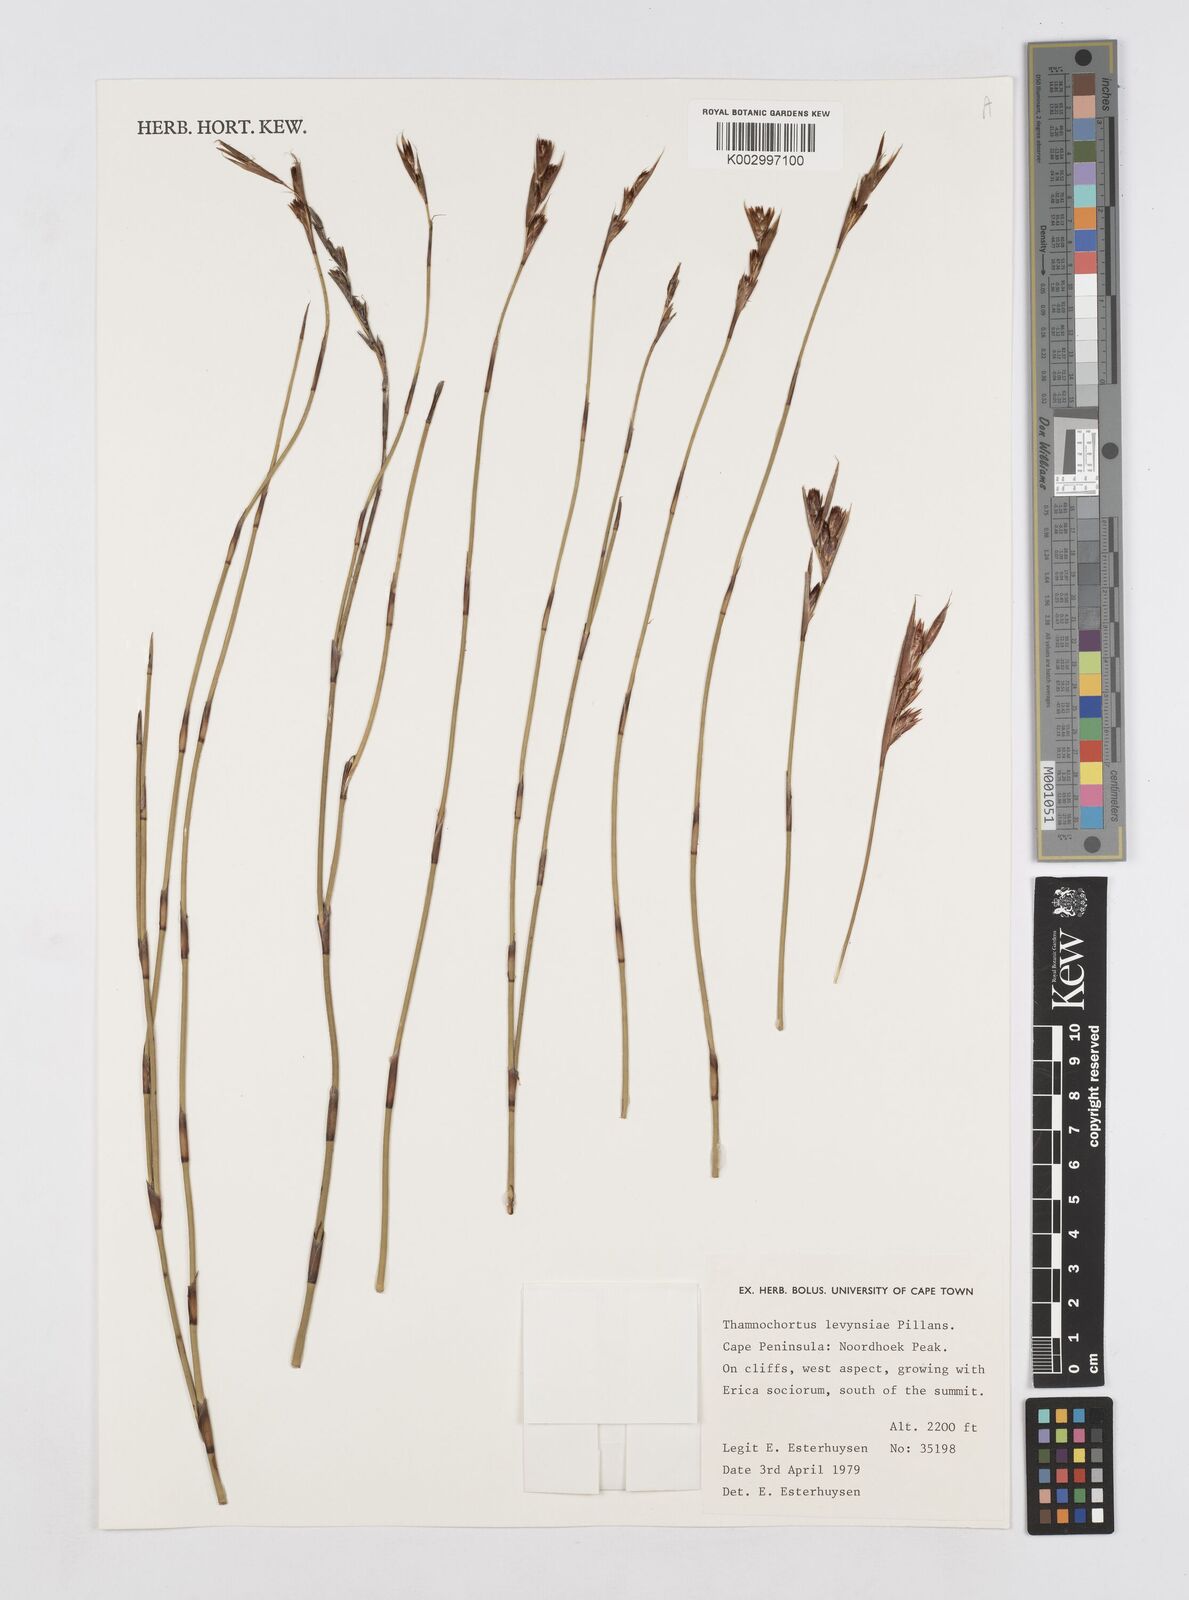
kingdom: Plantae
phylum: Tracheophyta
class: Liliopsida
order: Poales
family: Restionaceae
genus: Thamnochortus
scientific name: Thamnochortus levynsiae
